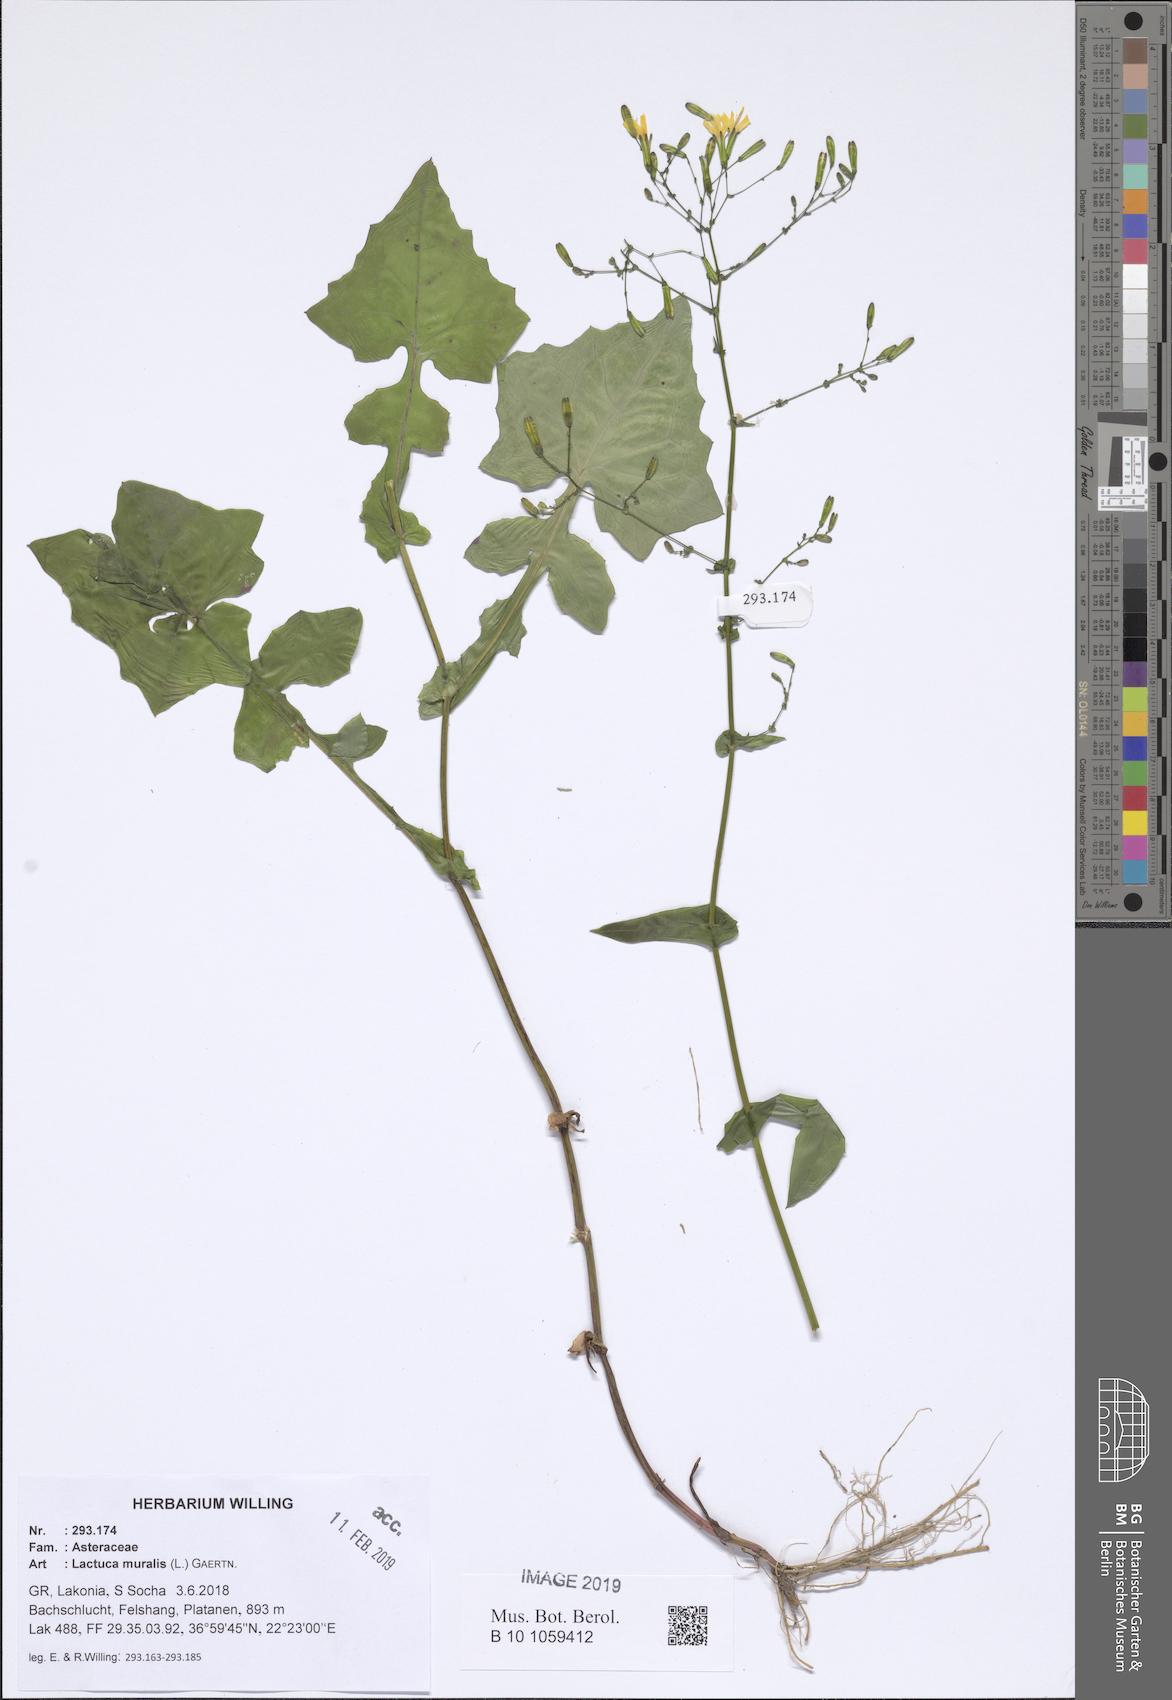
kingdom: Plantae
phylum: Tracheophyta
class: Magnoliopsida
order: Asterales
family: Asteraceae
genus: Mycelis
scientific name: Mycelis muralis
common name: Wall lettuce
